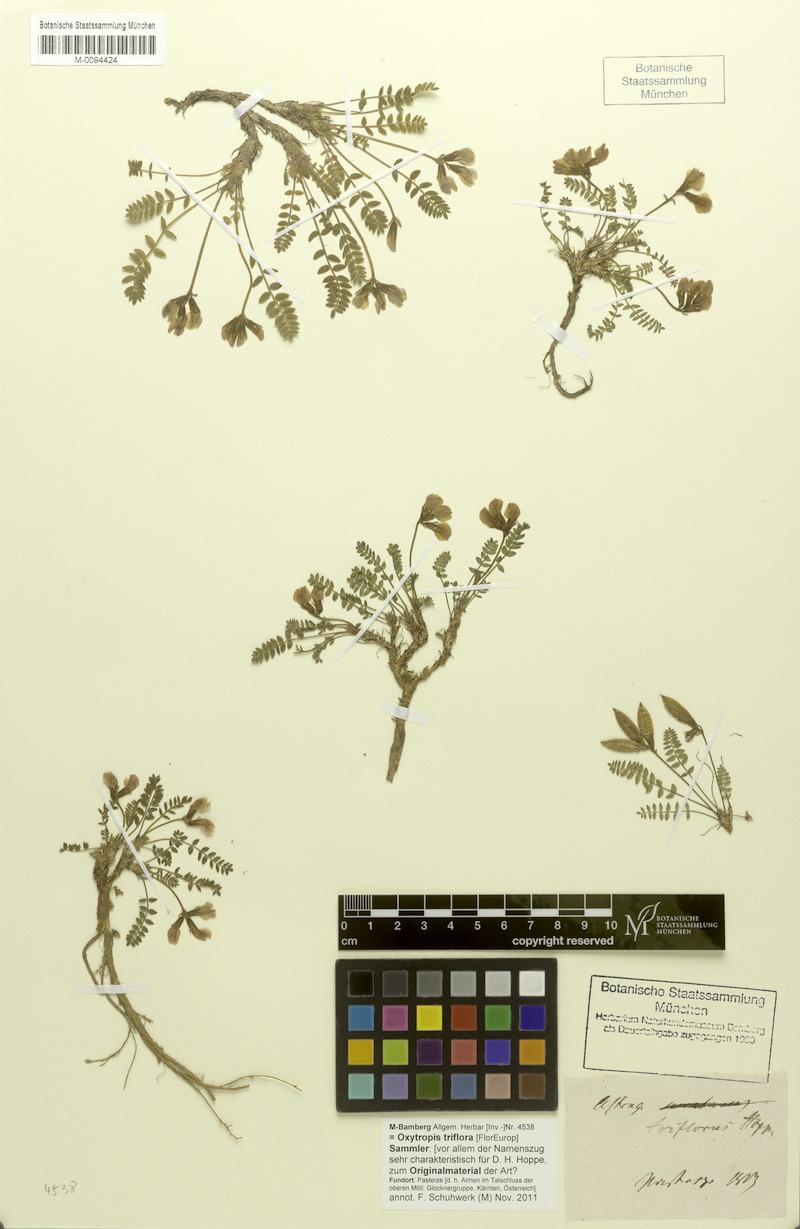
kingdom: Plantae
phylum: Tracheophyta
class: Magnoliopsida
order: Fabales
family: Fabaceae
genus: Oxytropis
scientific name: Oxytropis triflora
